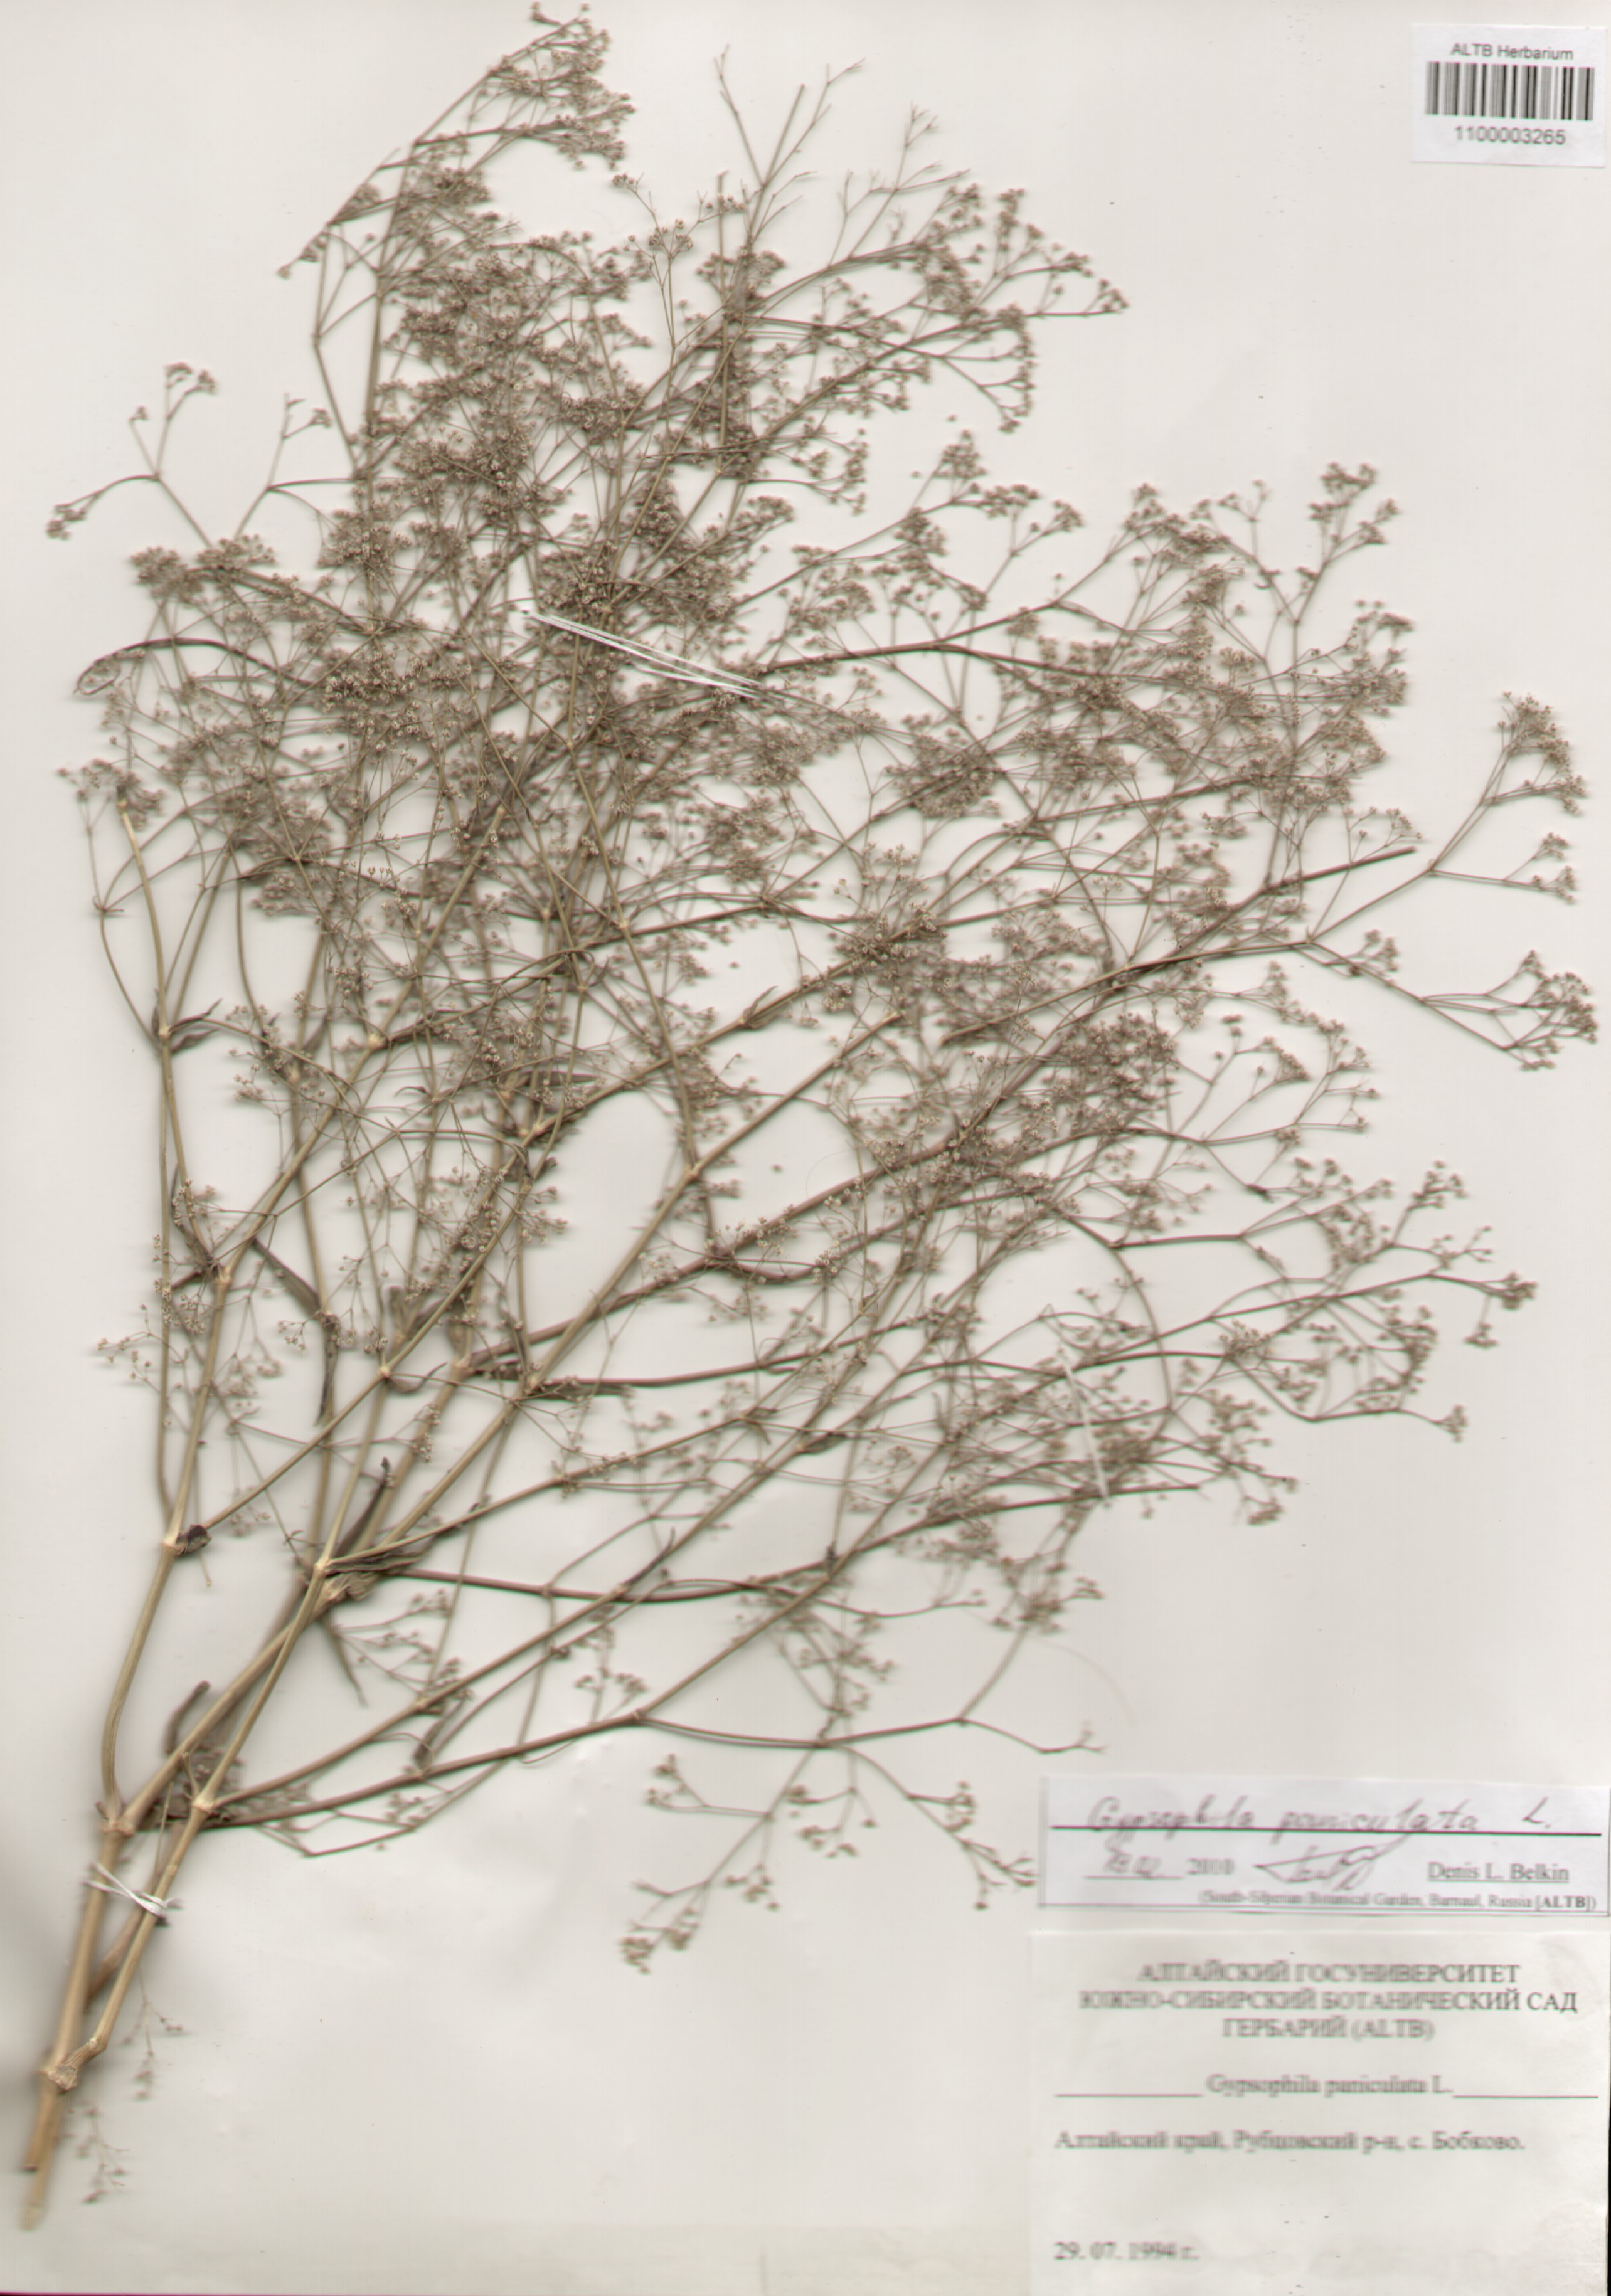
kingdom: Plantae
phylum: Tracheophyta
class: Magnoliopsida
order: Caryophyllales
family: Caryophyllaceae
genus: Gypsophila
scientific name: Gypsophila paniculata
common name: Baby's-breath
